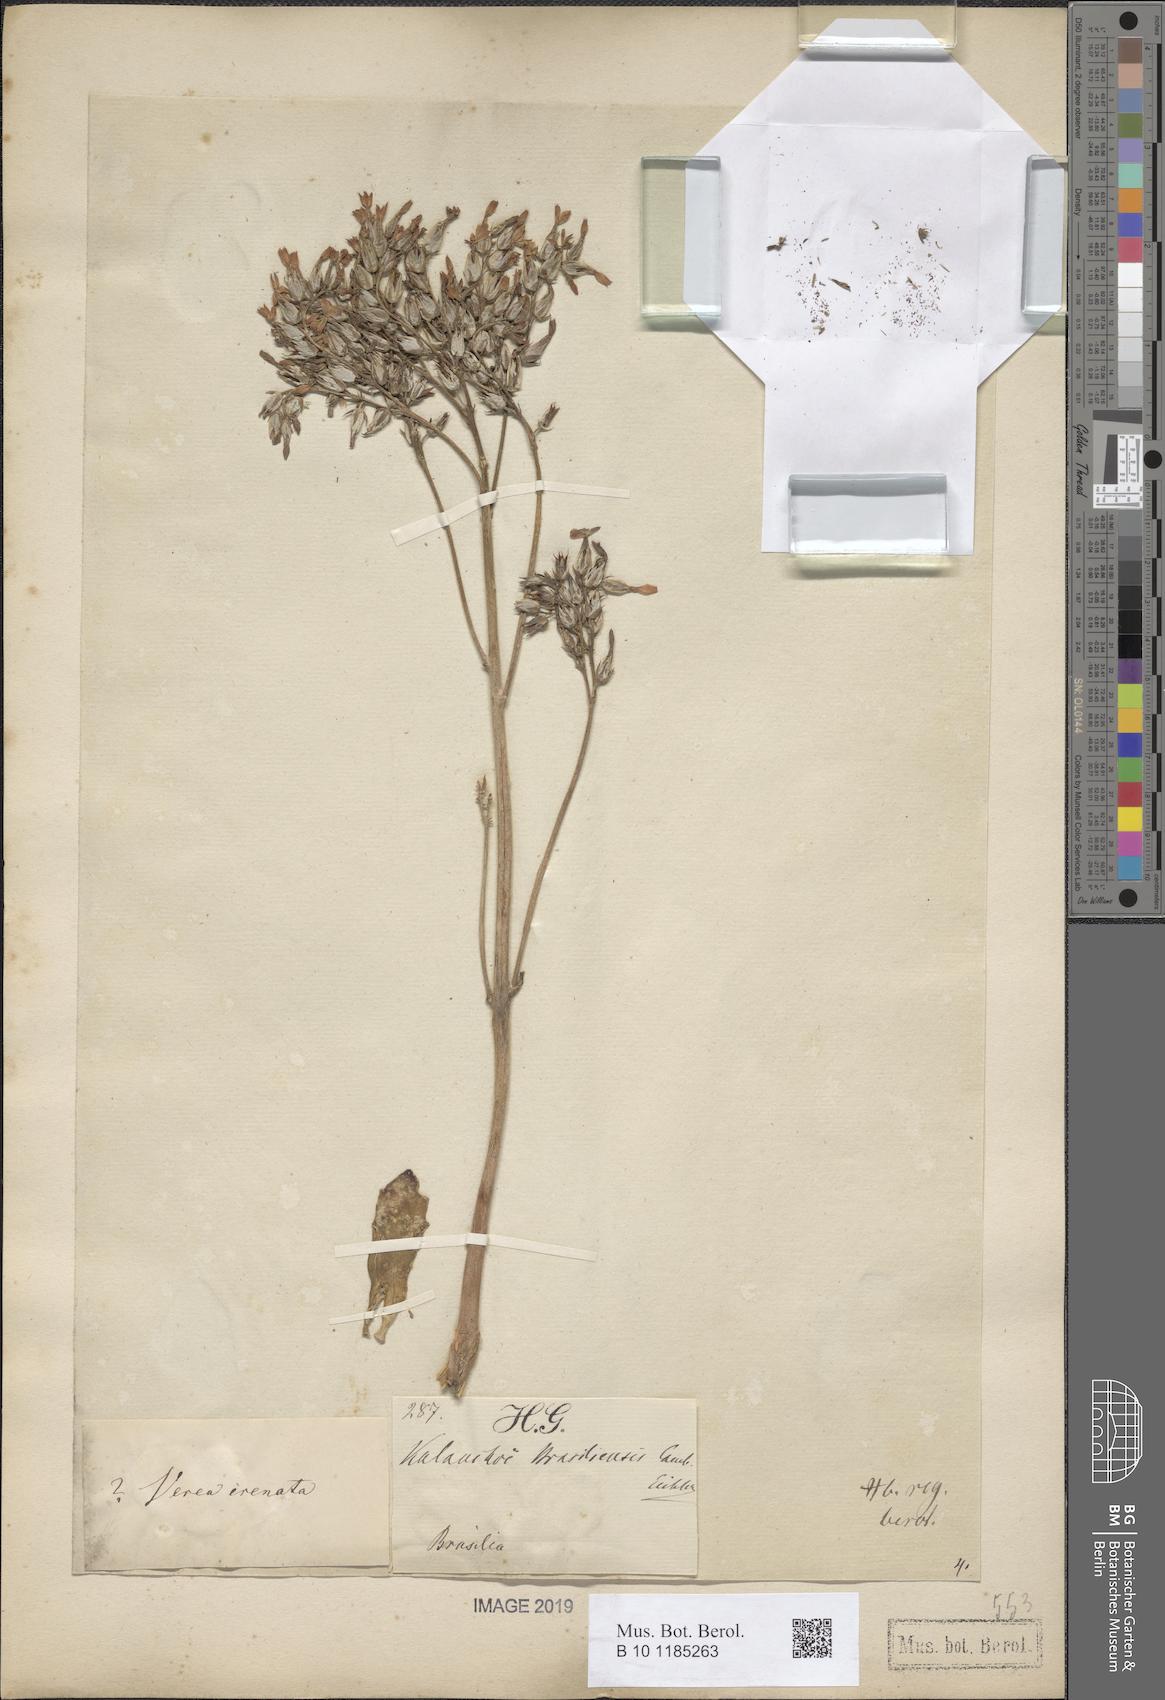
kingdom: Plantae
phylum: Tracheophyta
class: Magnoliopsida
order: Saxifragales
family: Crassulaceae
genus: Kalanchoe
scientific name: Kalanchoe crenata
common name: Neverdie
